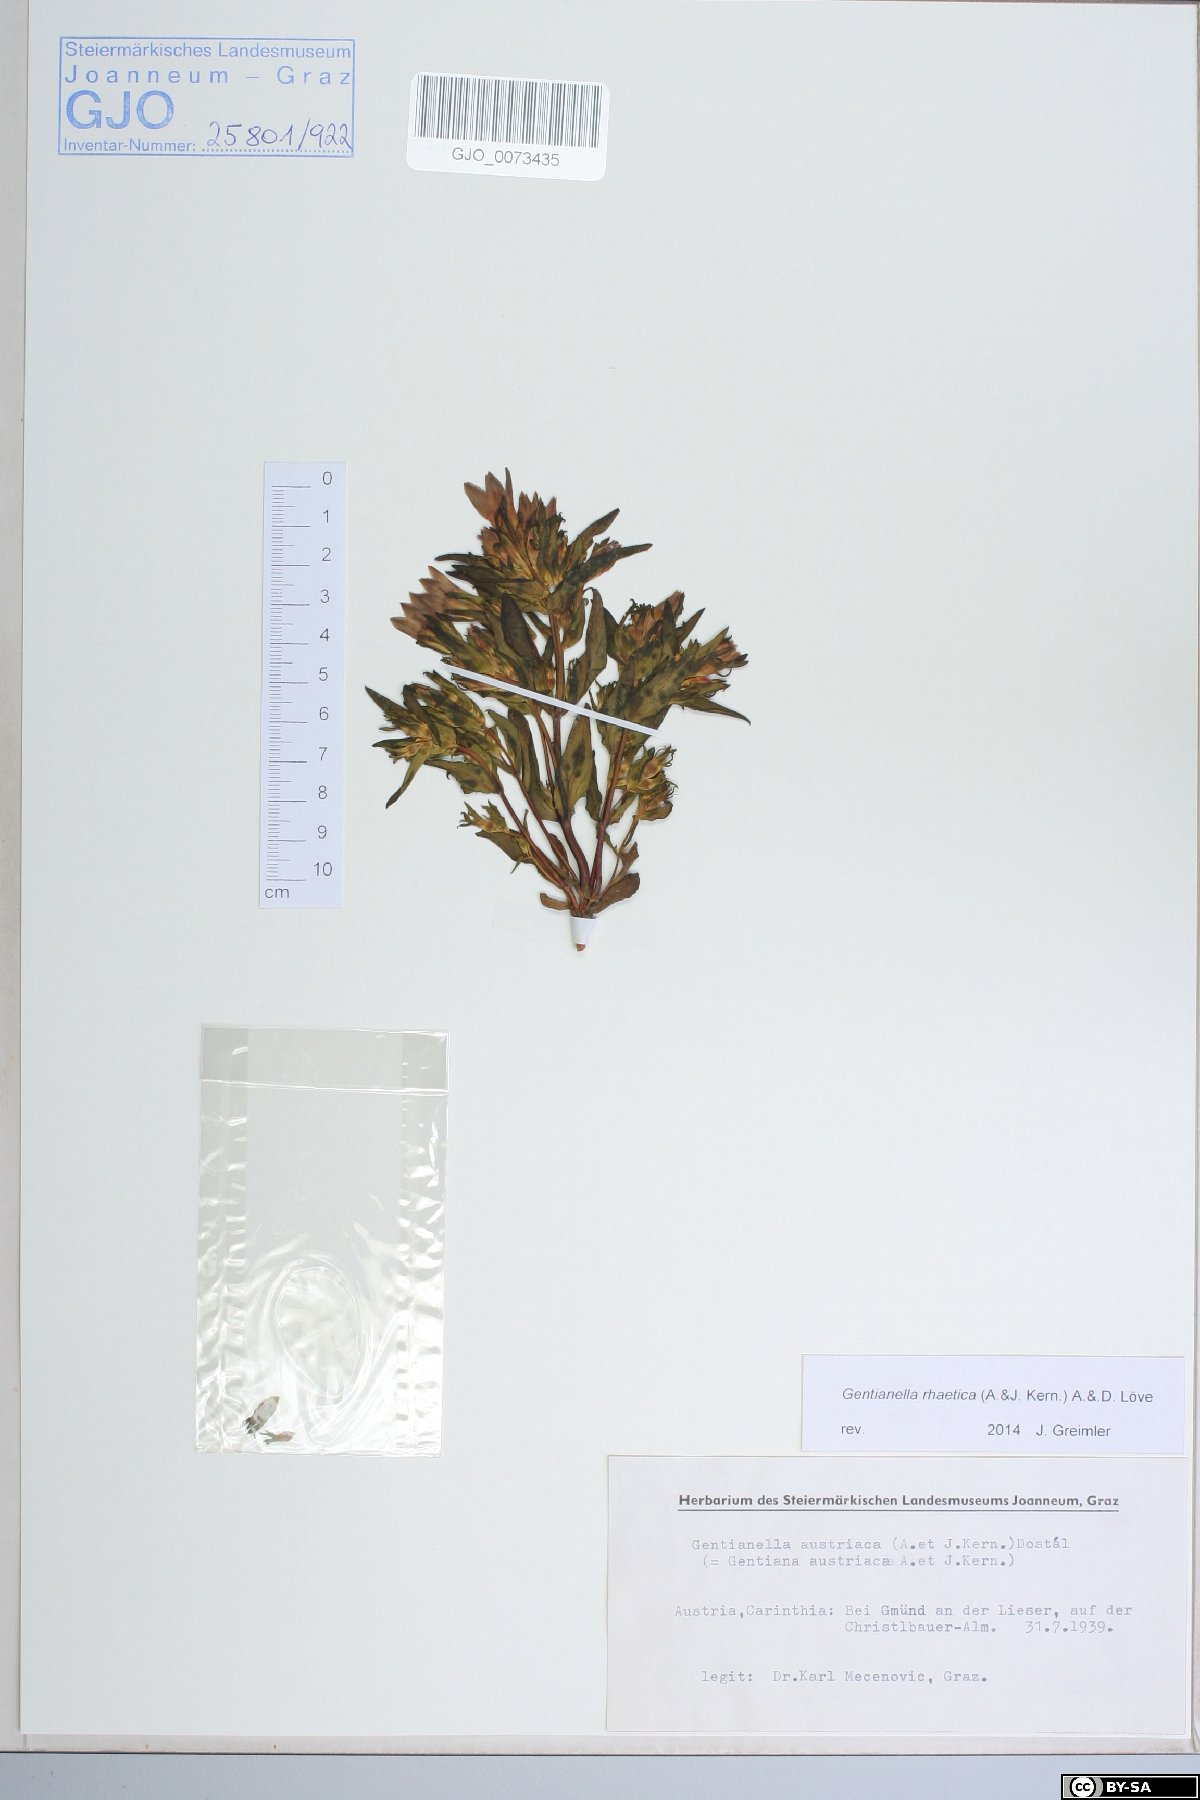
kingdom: Plantae
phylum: Tracheophyta
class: Magnoliopsida
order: Gentianales
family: Gentianaceae
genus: Gentianella
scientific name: Gentianella rhaetica
